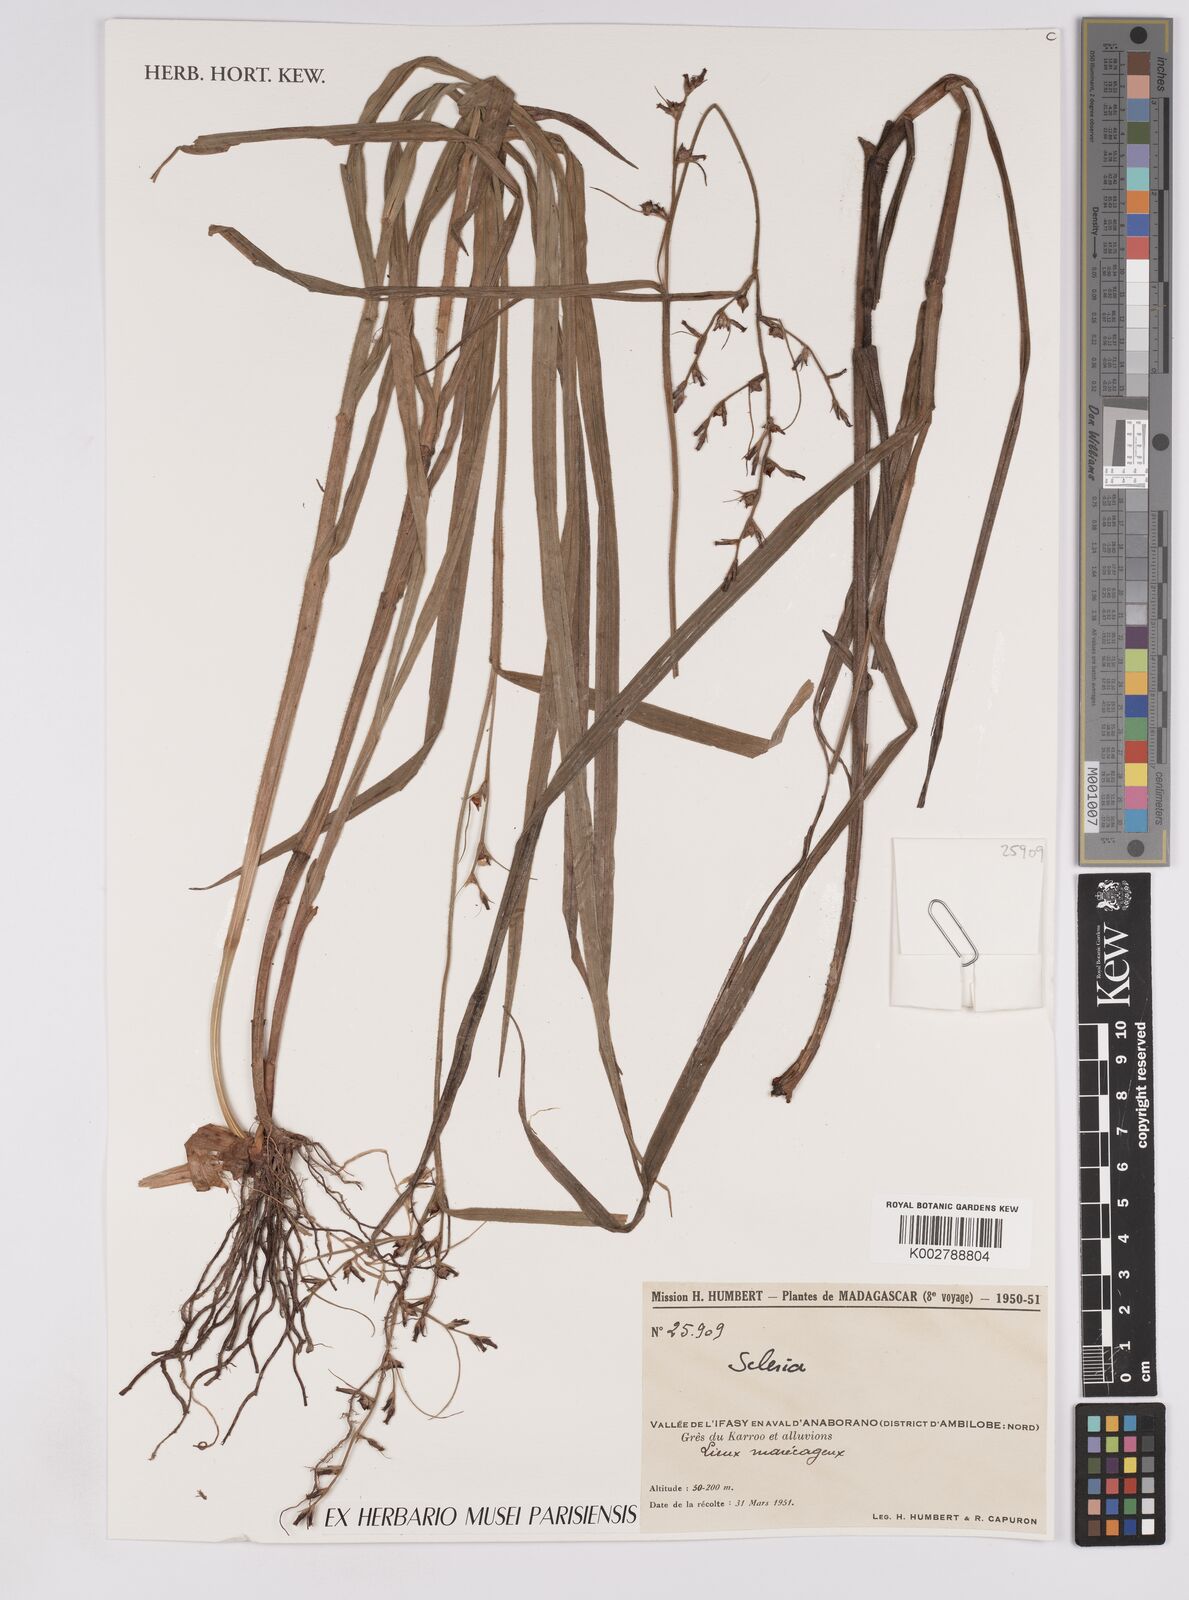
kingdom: Plantae
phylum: Tracheophyta
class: Liliopsida
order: Poales
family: Cyperaceae
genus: Scleria
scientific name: Scleria
